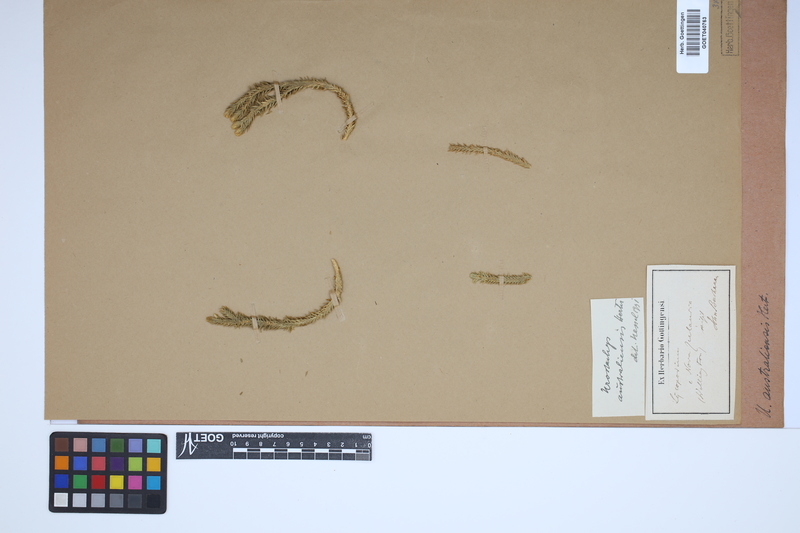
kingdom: Plantae
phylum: Tracheophyta
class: Lycopodiopsida
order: Lycopodiales
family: Lycopodiaceae
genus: Huperzia
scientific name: Huperzia australiana
